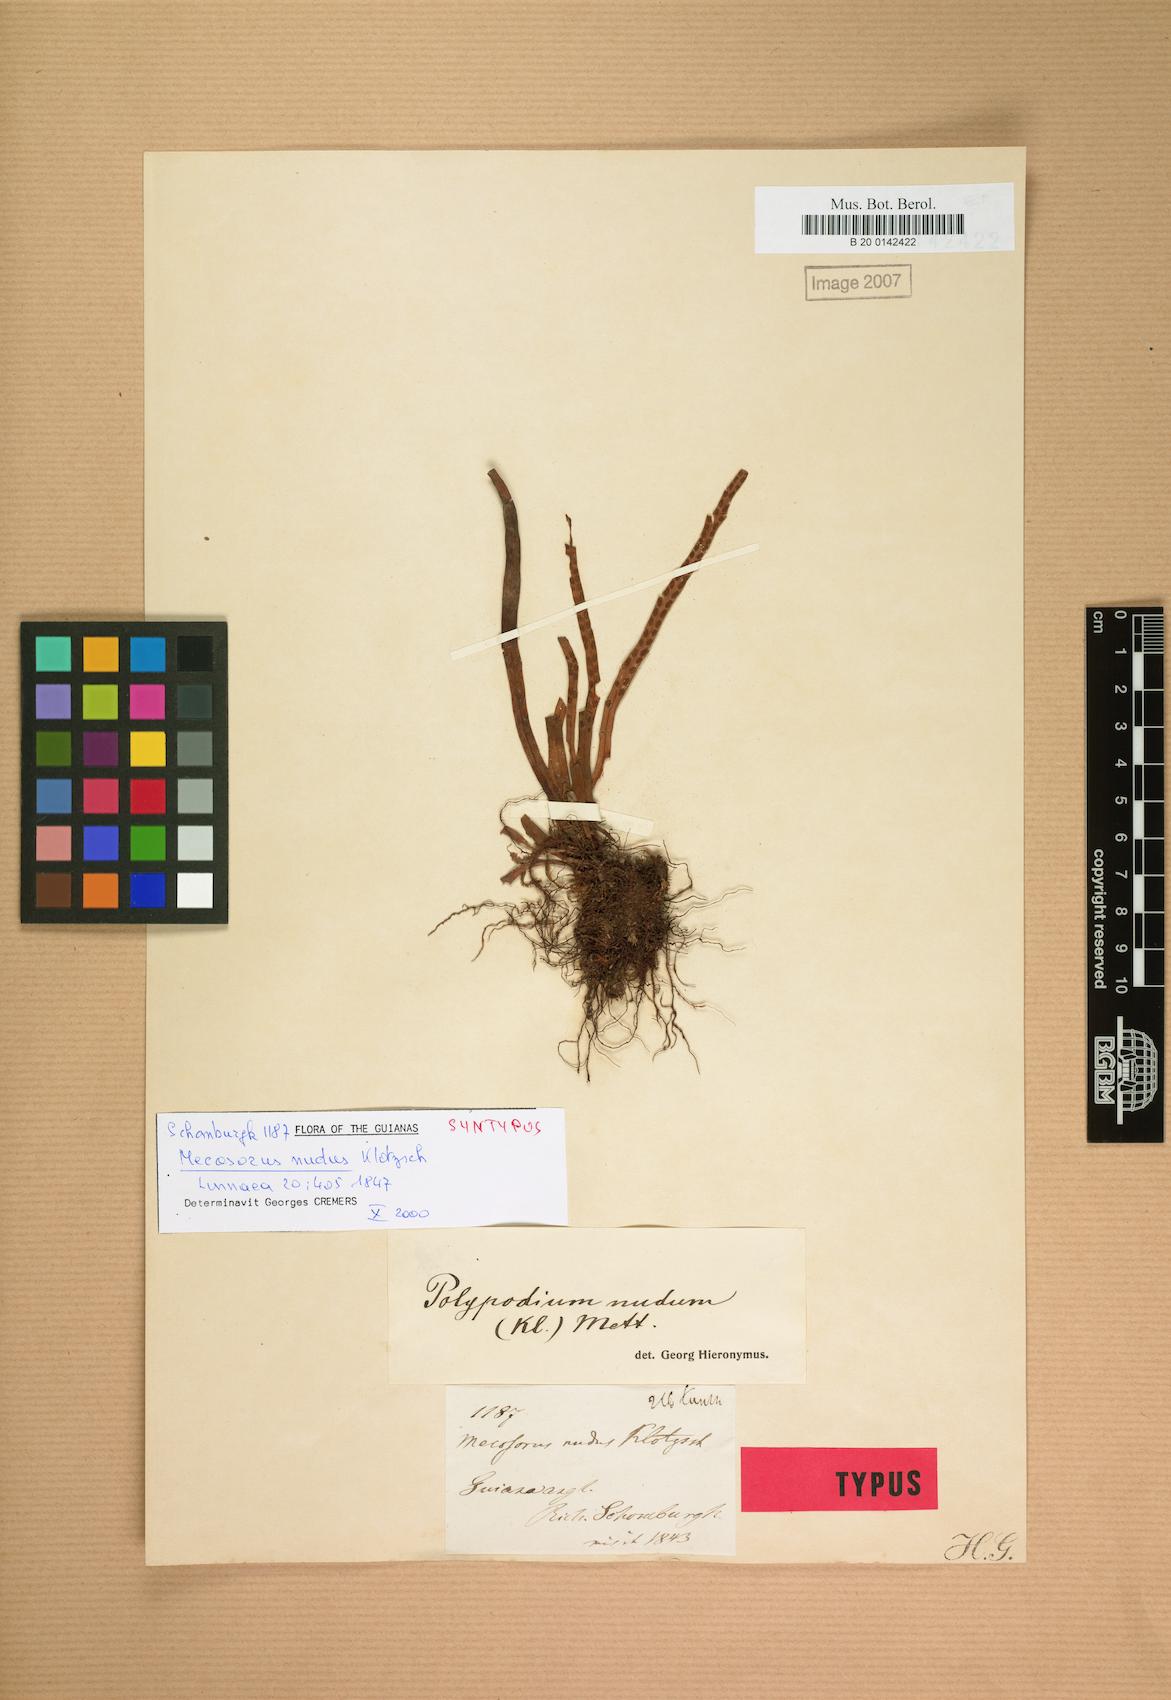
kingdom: Plantae
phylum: Tracheophyta
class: Polypodiopsida
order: Polypodiales
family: Polypodiaceae
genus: Lomaphlebia
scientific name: Lomaphlebia linearis
